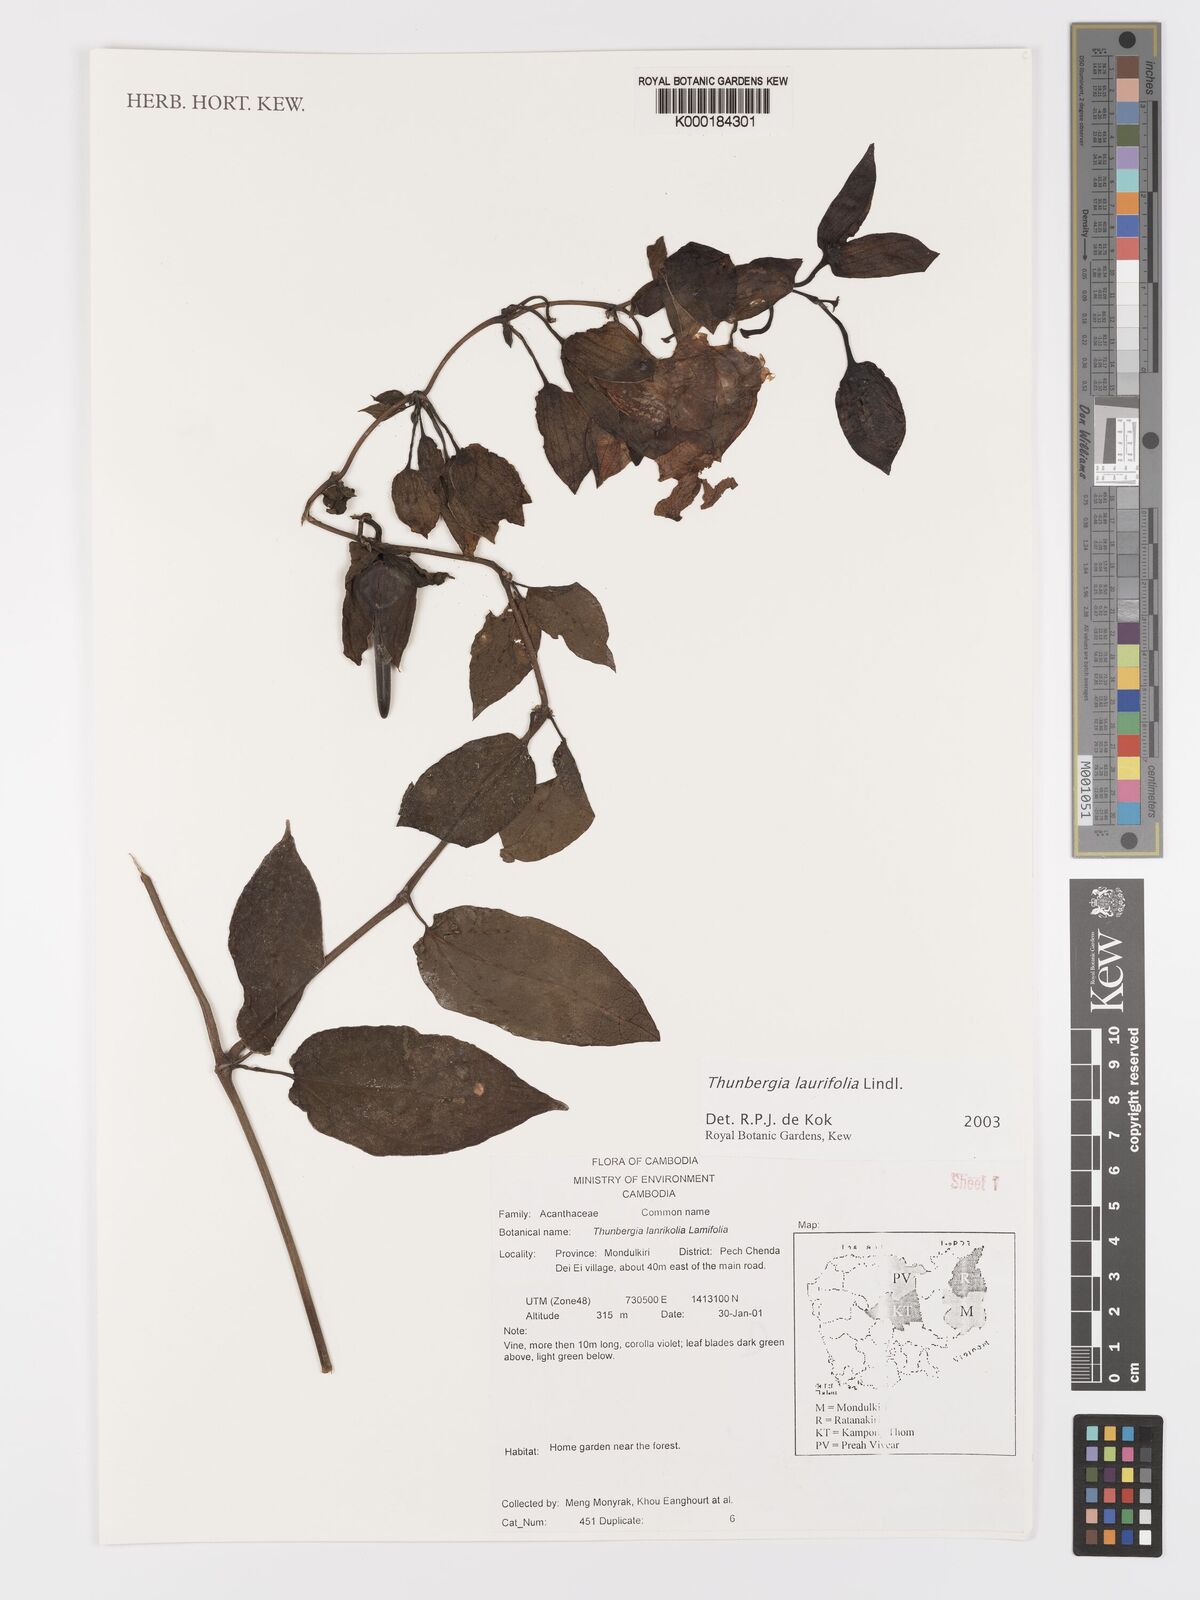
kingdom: Plantae
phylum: Tracheophyta
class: Magnoliopsida
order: Lamiales
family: Acanthaceae
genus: Thunbergia
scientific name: Thunbergia
